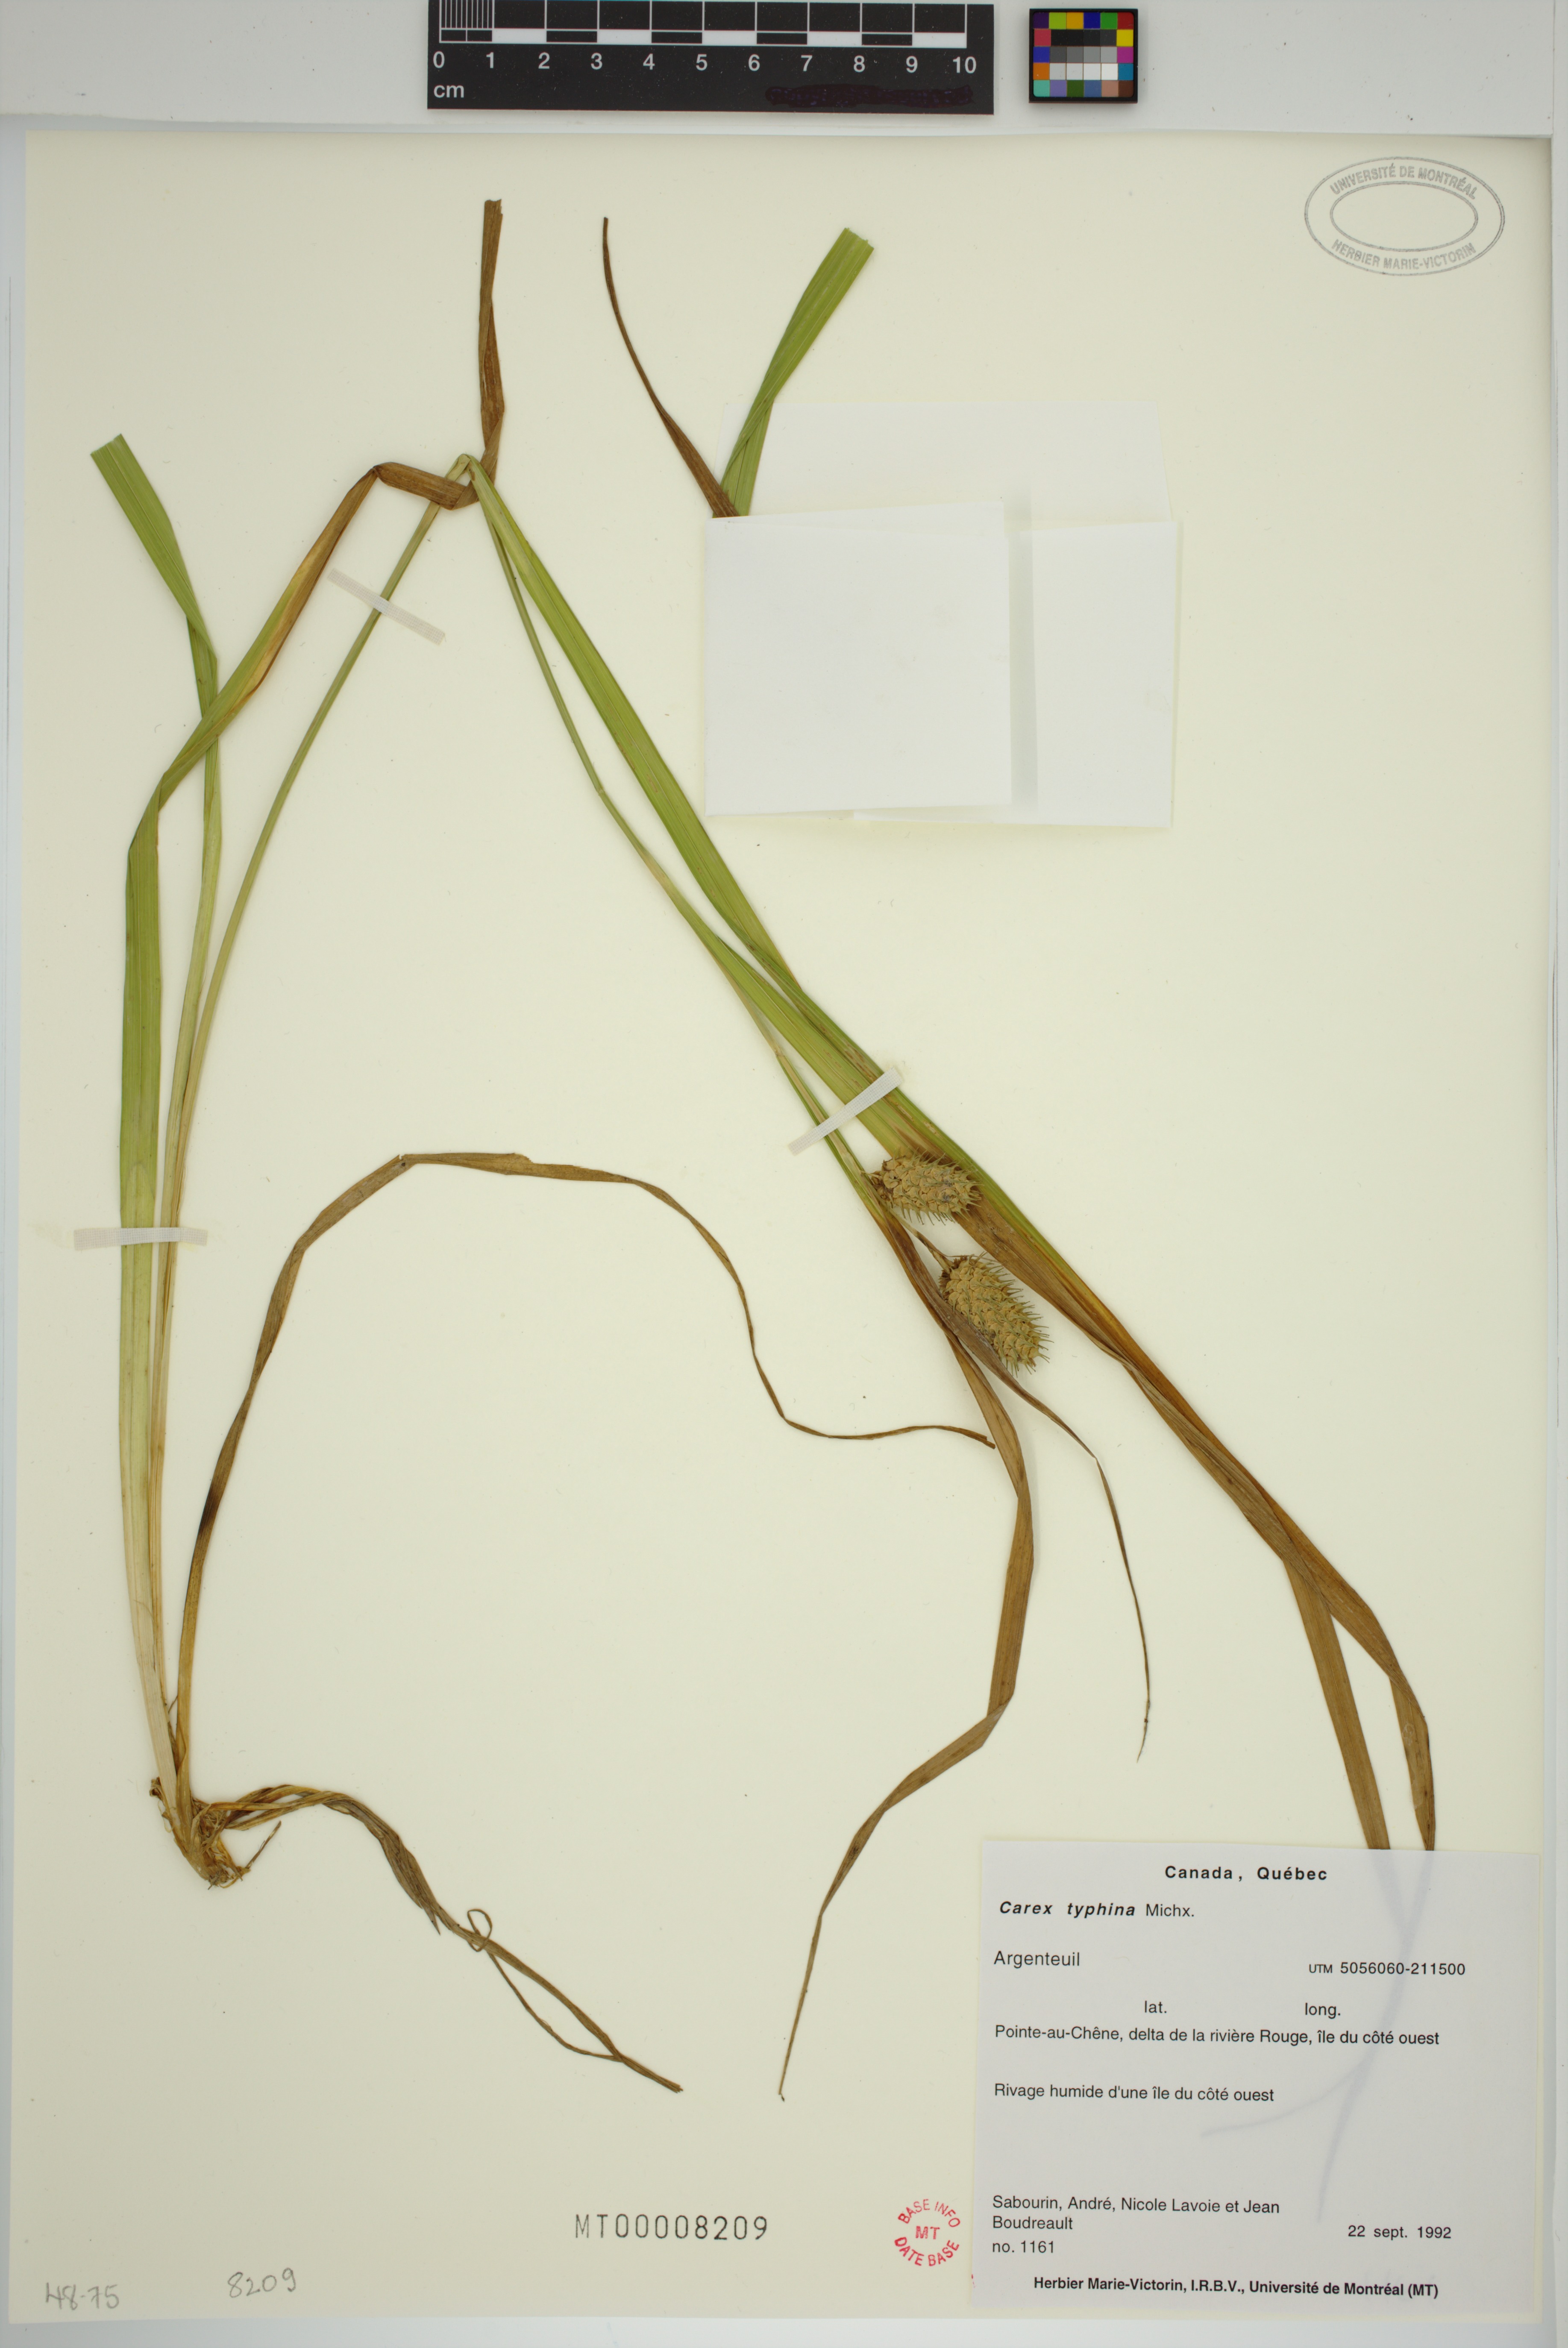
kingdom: Plantae
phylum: Tracheophyta
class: Liliopsida
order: Poales
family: Cyperaceae
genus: Carex
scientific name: Carex typhina
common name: Cattail sedge
